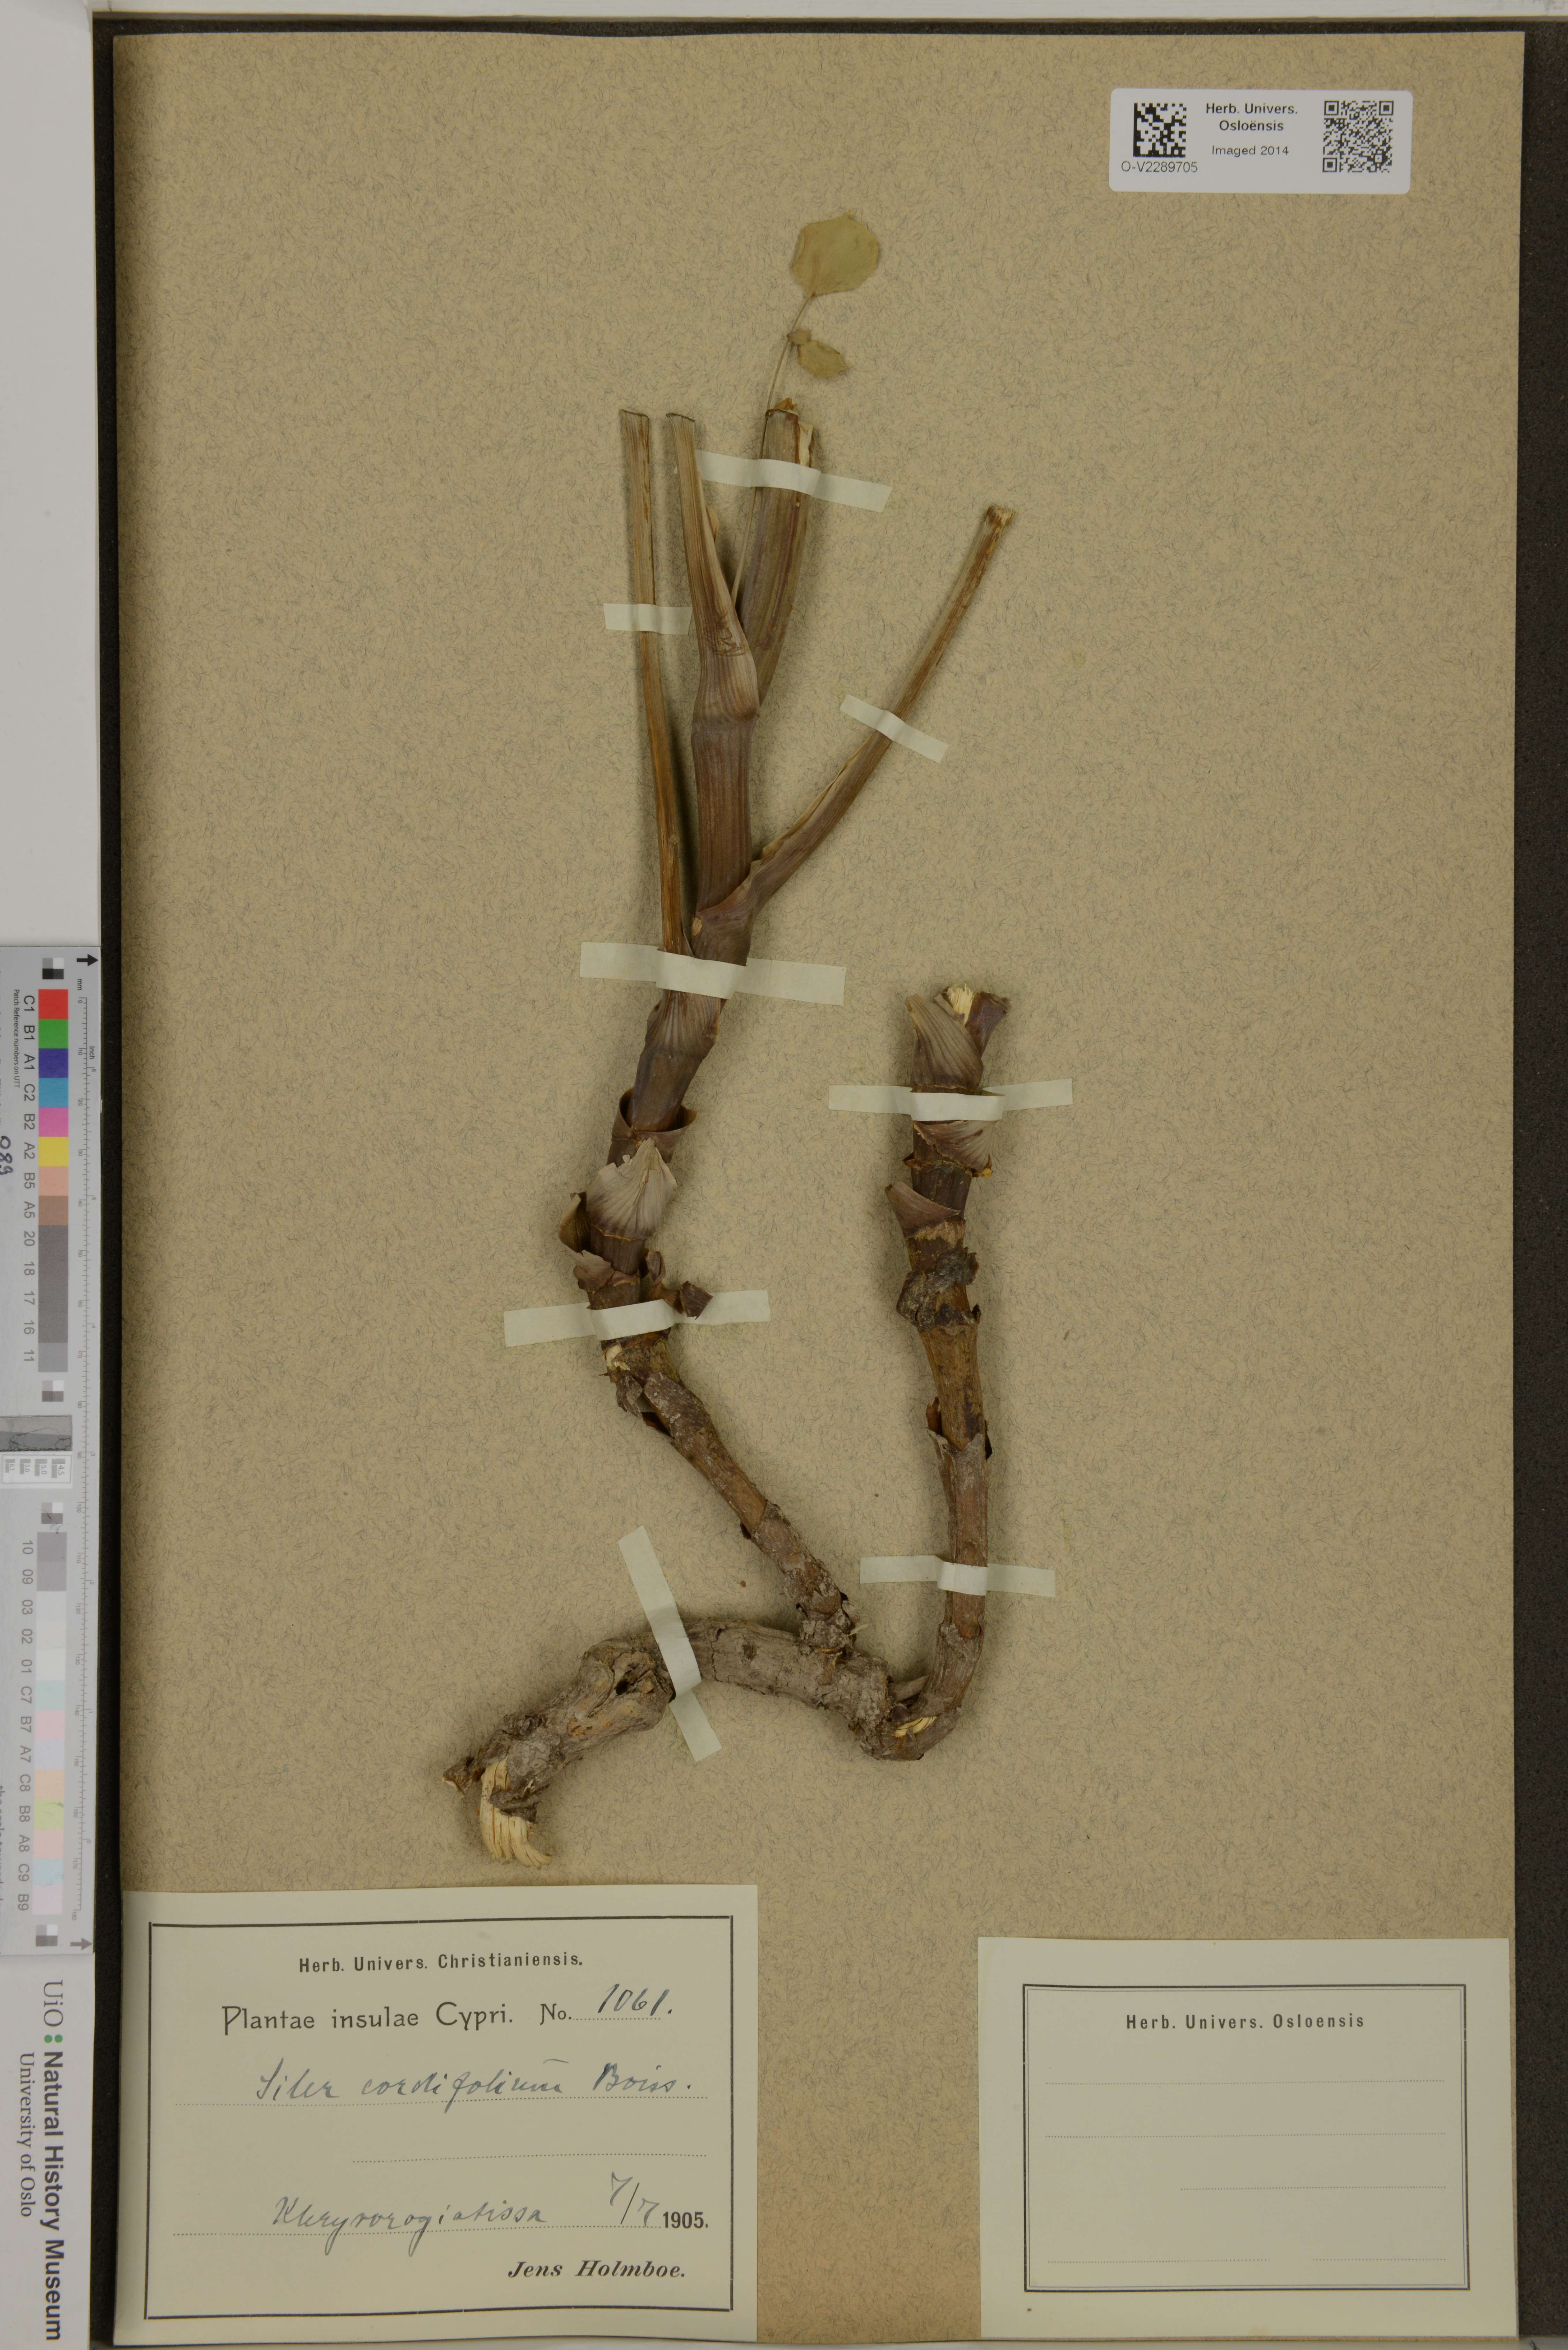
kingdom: Plantae
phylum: Tracheophyta
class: Magnoliopsida
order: Apiales
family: Apiaceae
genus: Glaucosciadium
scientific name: Glaucosciadium cordifolium
